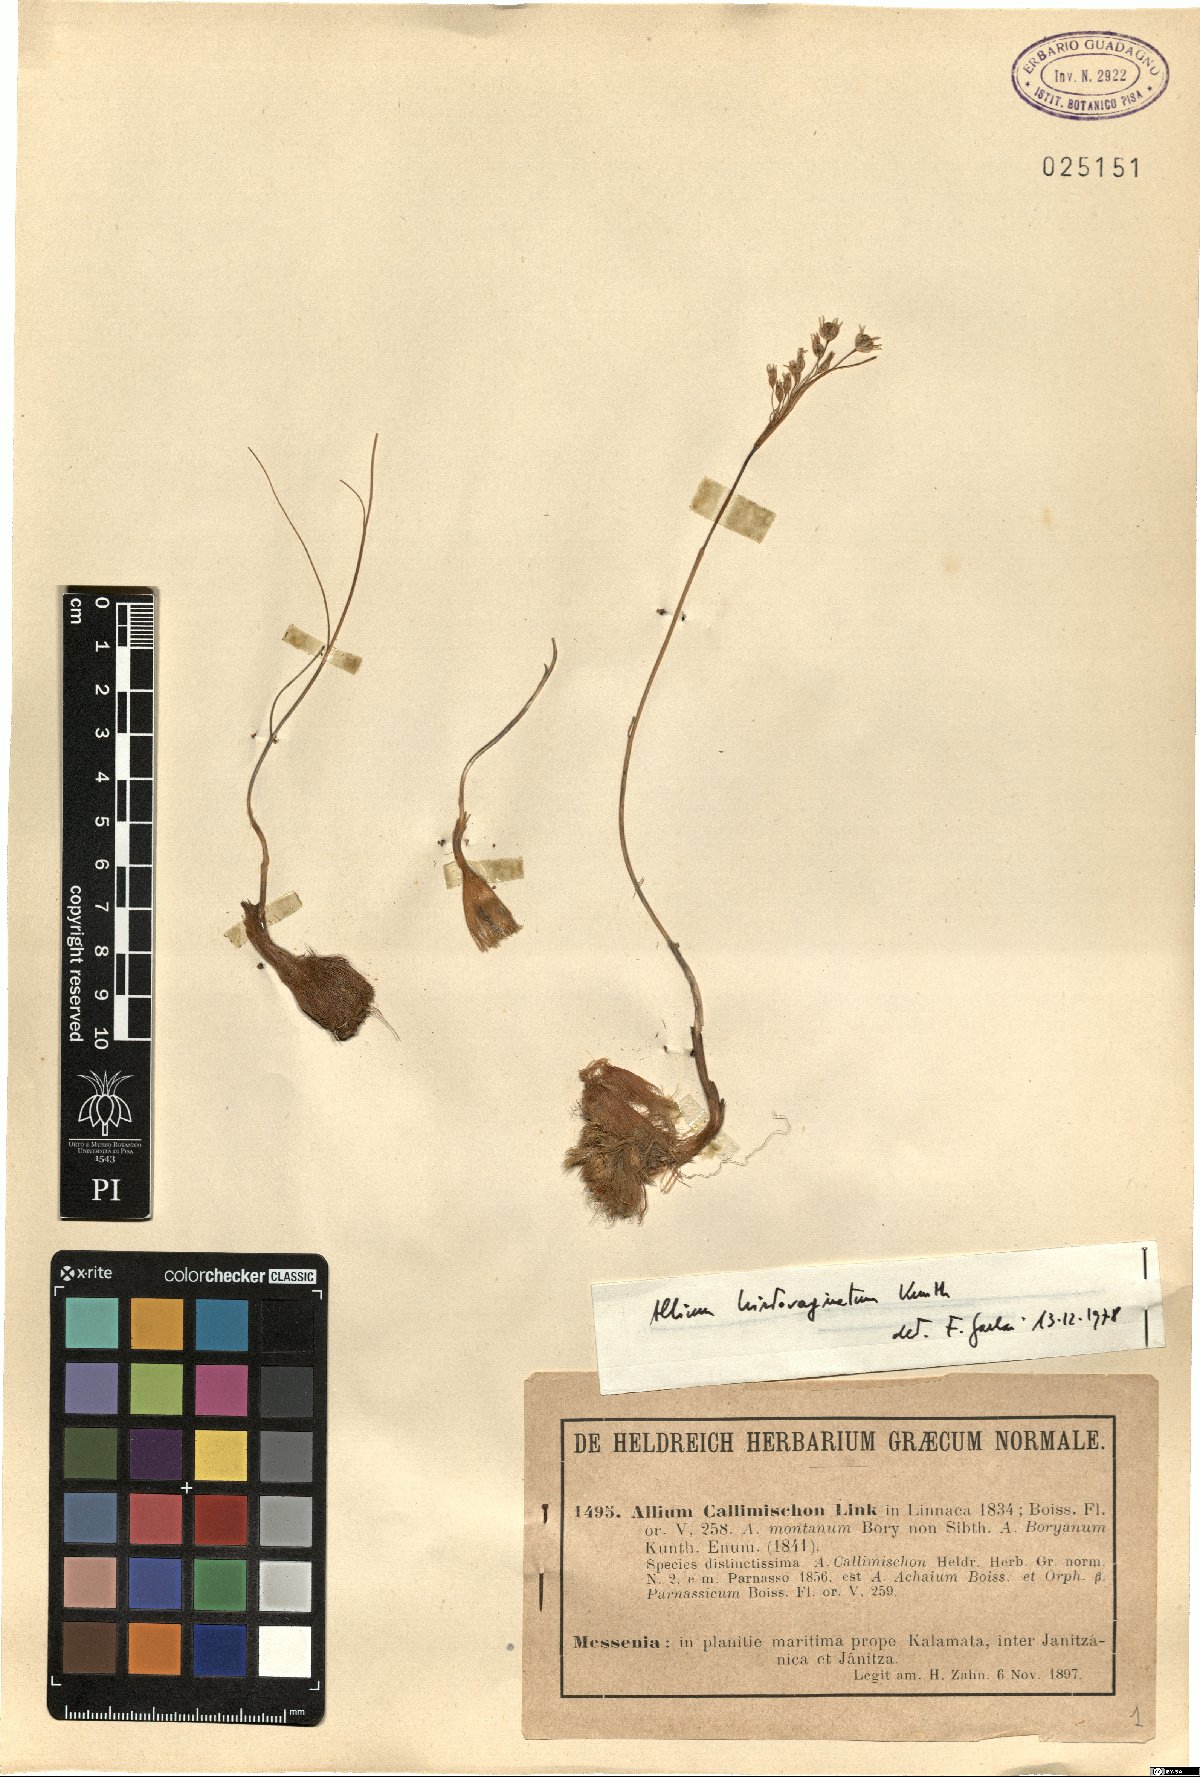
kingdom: Plantae
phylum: Tracheophyta
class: Liliopsida
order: Asparagales
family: Amaryllidaceae
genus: Allium
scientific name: Allium cupani
